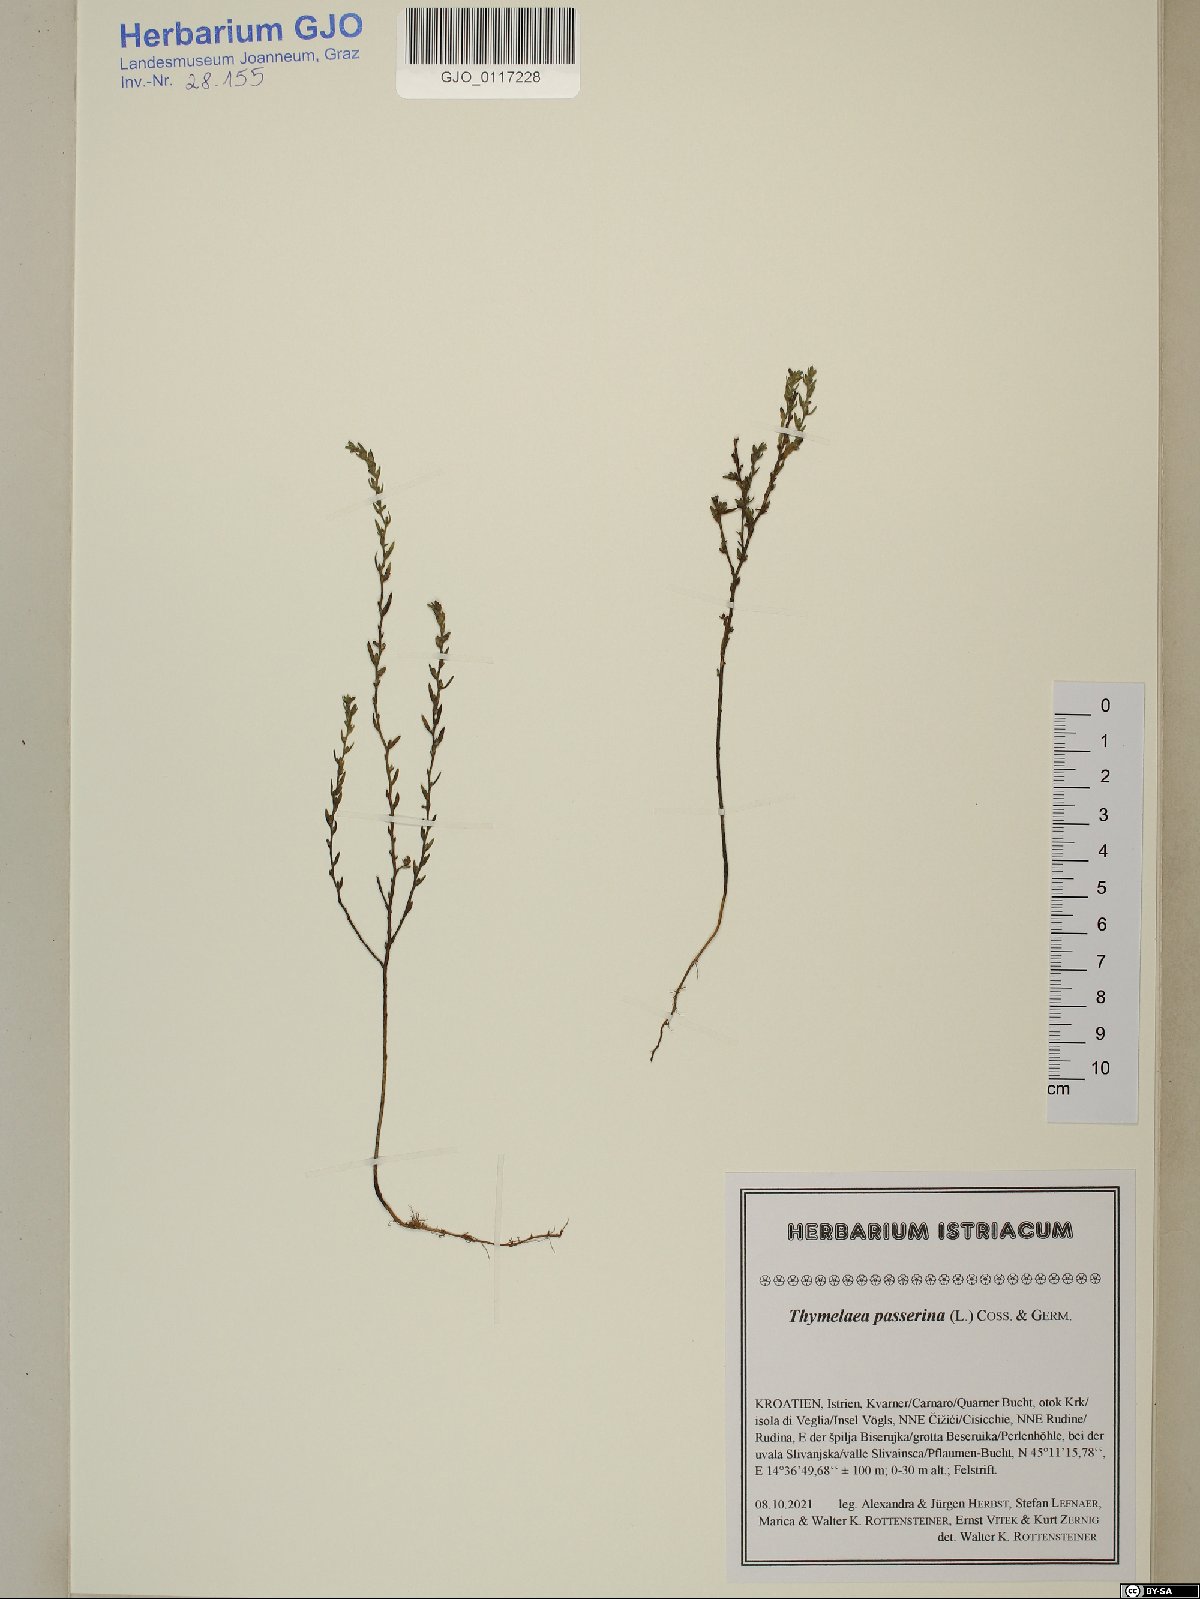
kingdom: Plantae
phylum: Tracheophyta
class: Magnoliopsida
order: Malvales
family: Thymelaeaceae
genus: Thymelaea
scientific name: Thymelaea passerina
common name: Annual thymelaea
